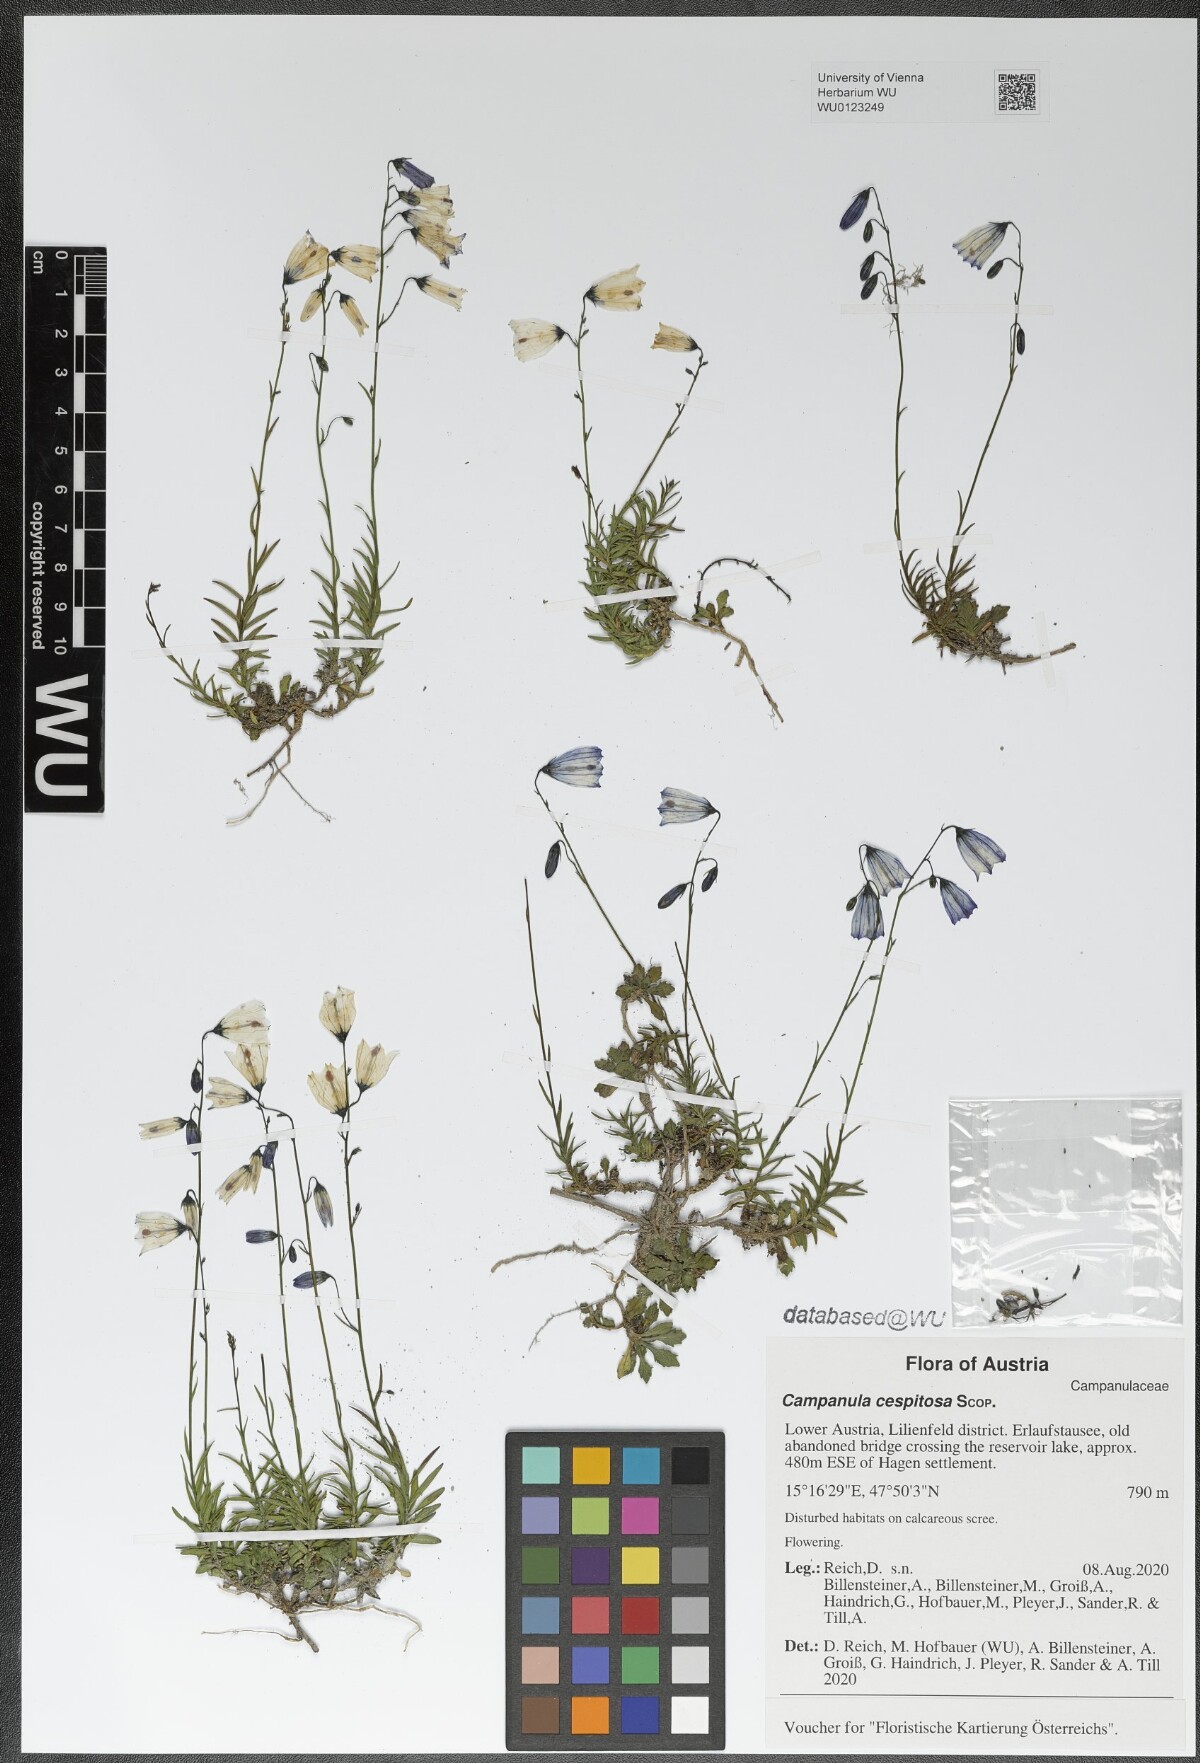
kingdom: Plantae
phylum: Tracheophyta
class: Magnoliopsida
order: Asterales
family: Campanulaceae
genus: Campanula
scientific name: Campanula cespitosa
